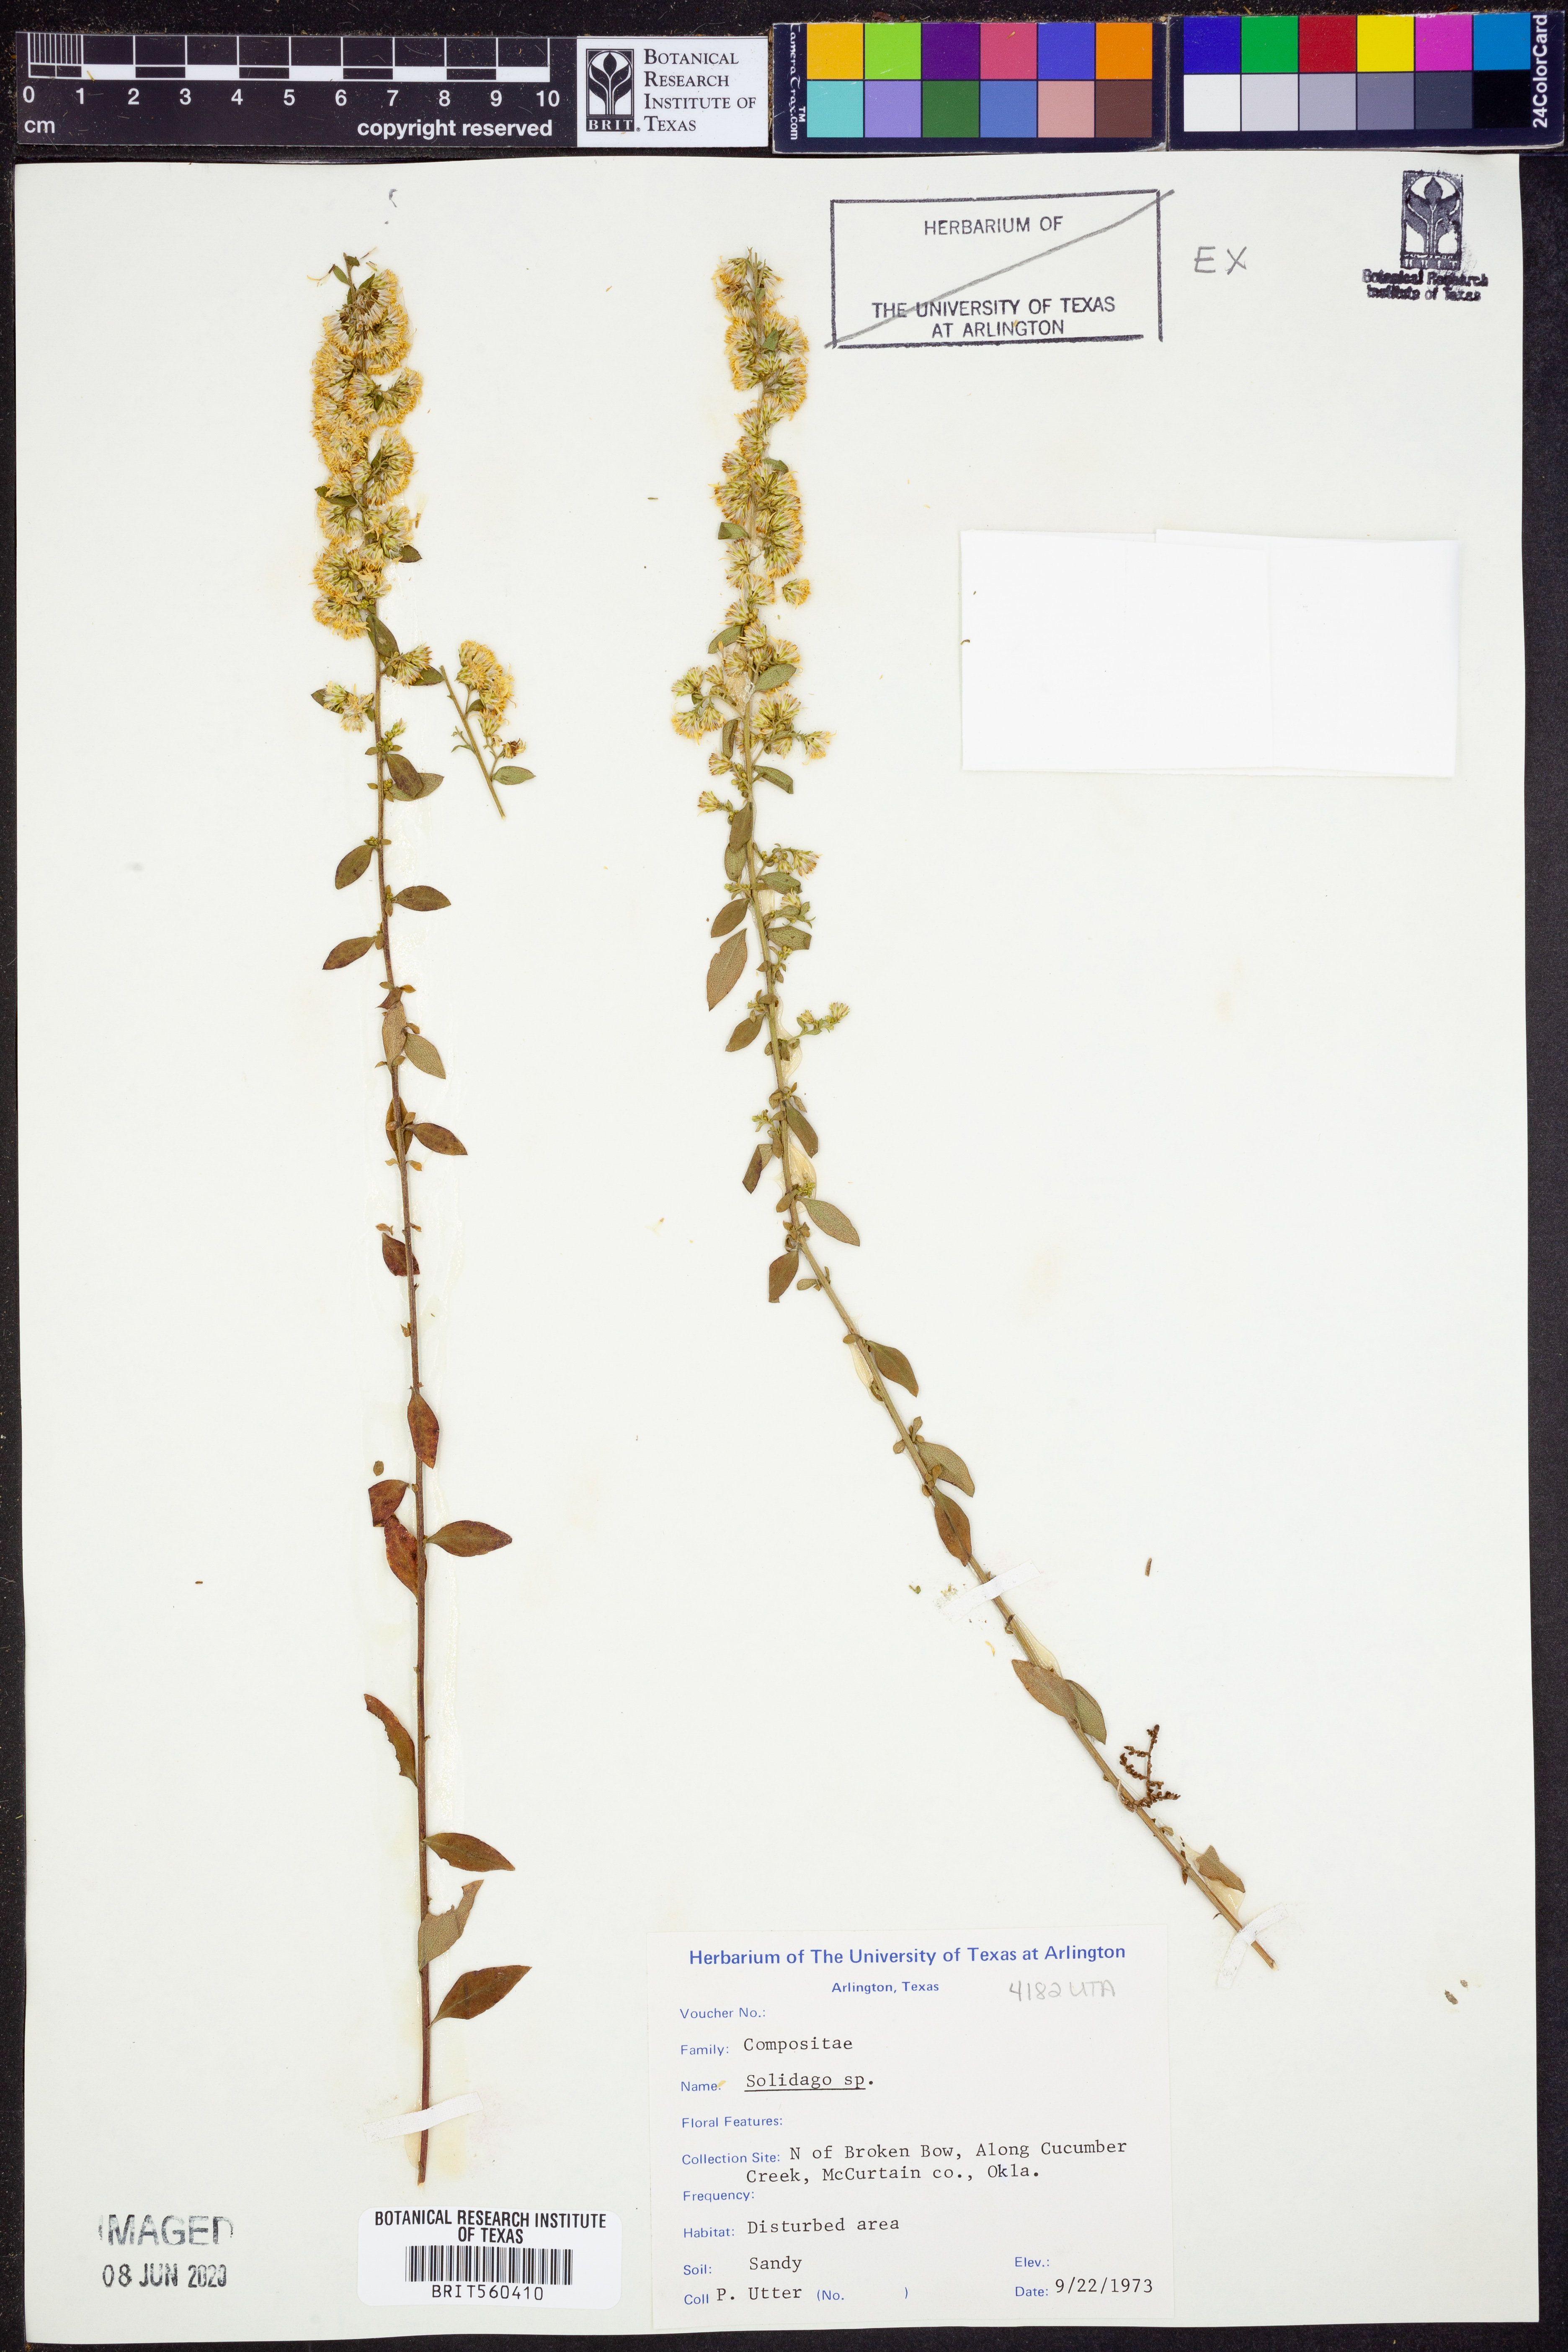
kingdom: Plantae
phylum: Tracheophyta
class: Magnoliopsida
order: Asterales
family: Asteraceae
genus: Solidago
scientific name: Solidago
